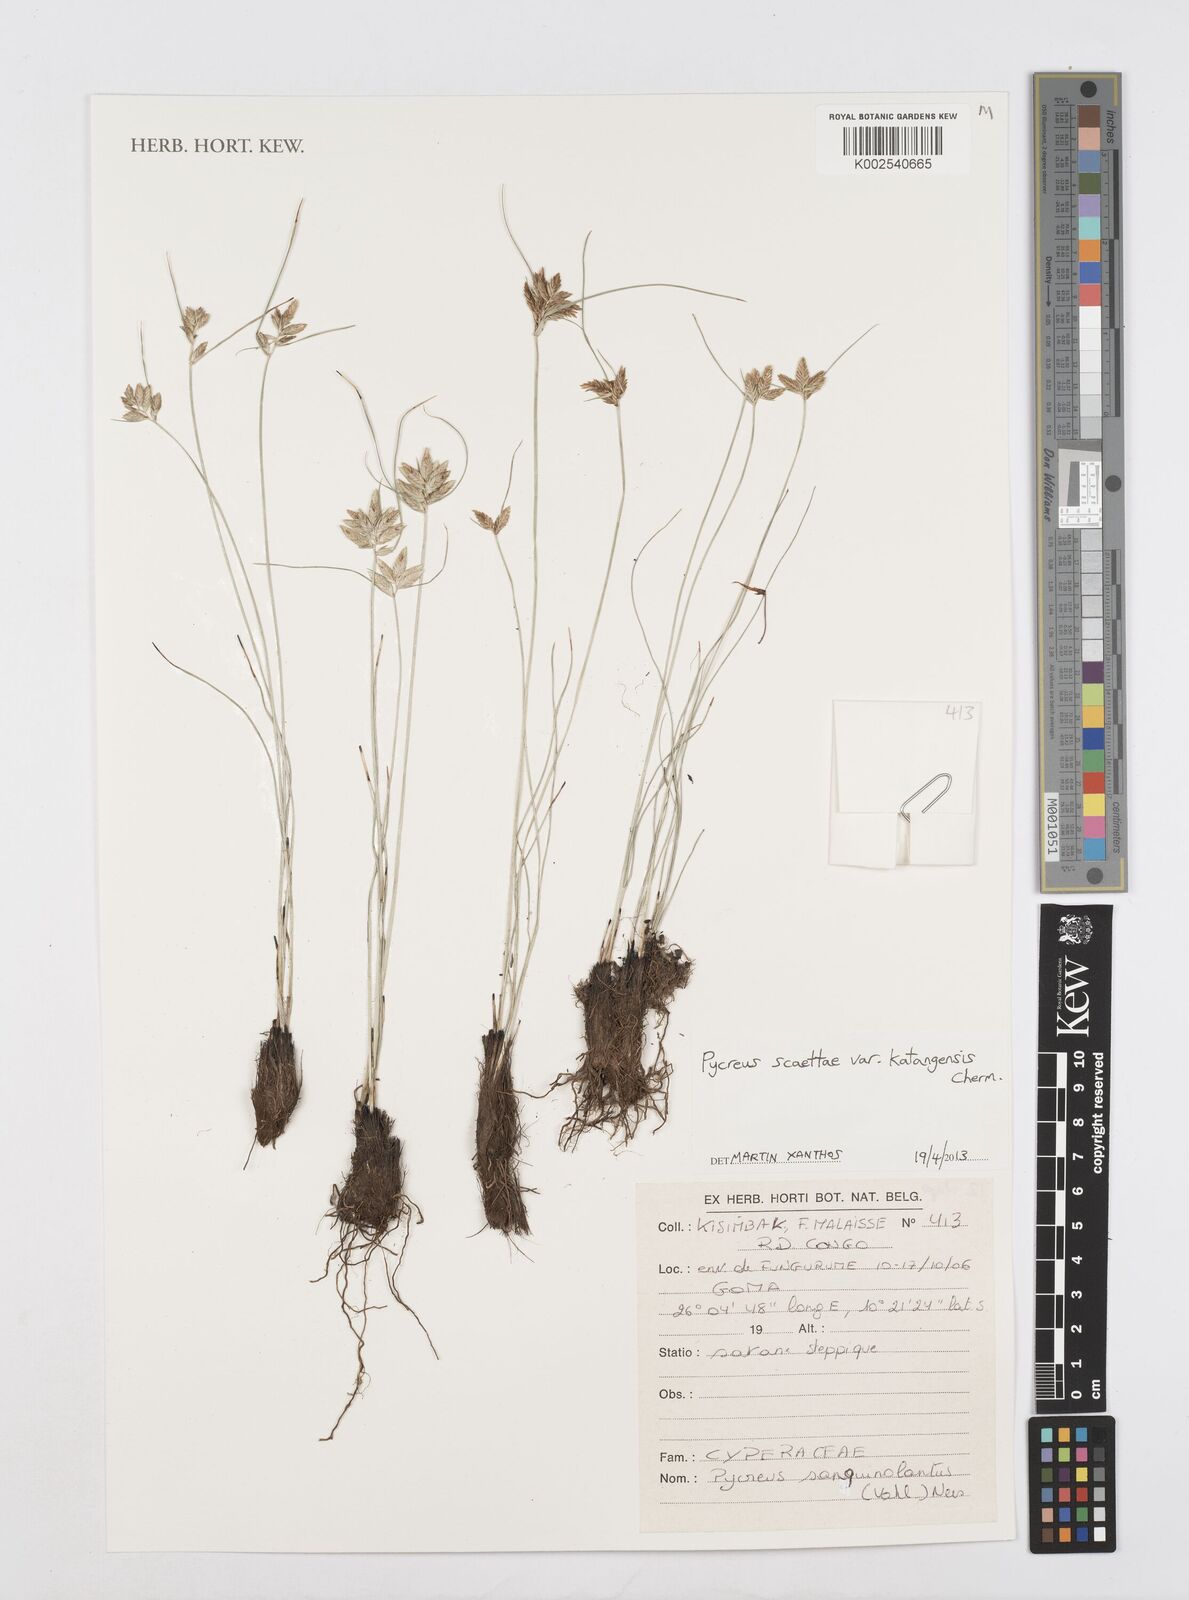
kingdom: Plantae
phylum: Tracheophyta
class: Liliopsida
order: Poales
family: Cyperaceae
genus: Cyperus
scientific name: Cyperus
